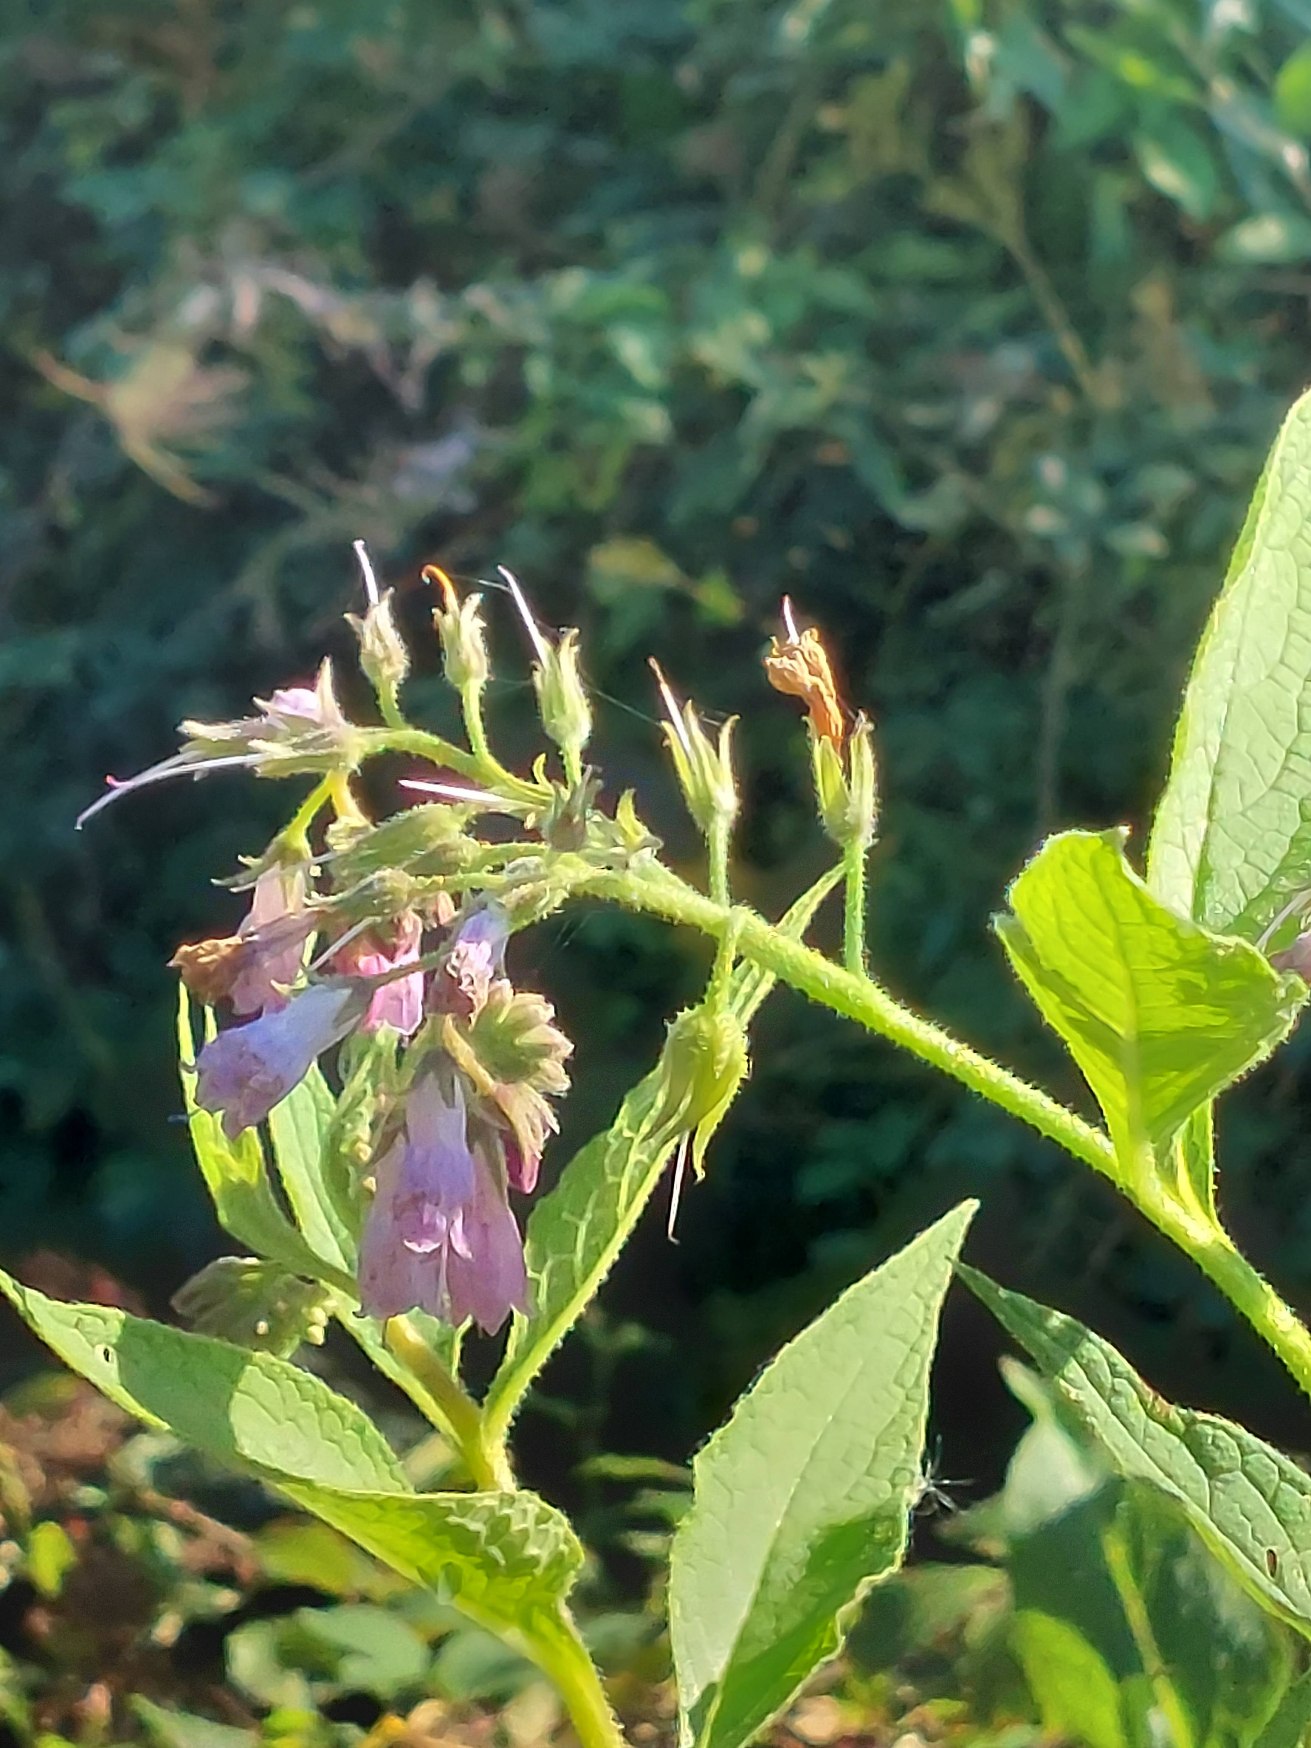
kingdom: Plantae
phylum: Tracheophyta
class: Magnoliopsida
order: Boraginales
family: Boraginaceae
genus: Symphytum
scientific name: Symphytum uplandicum
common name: Foder-kulsukker
